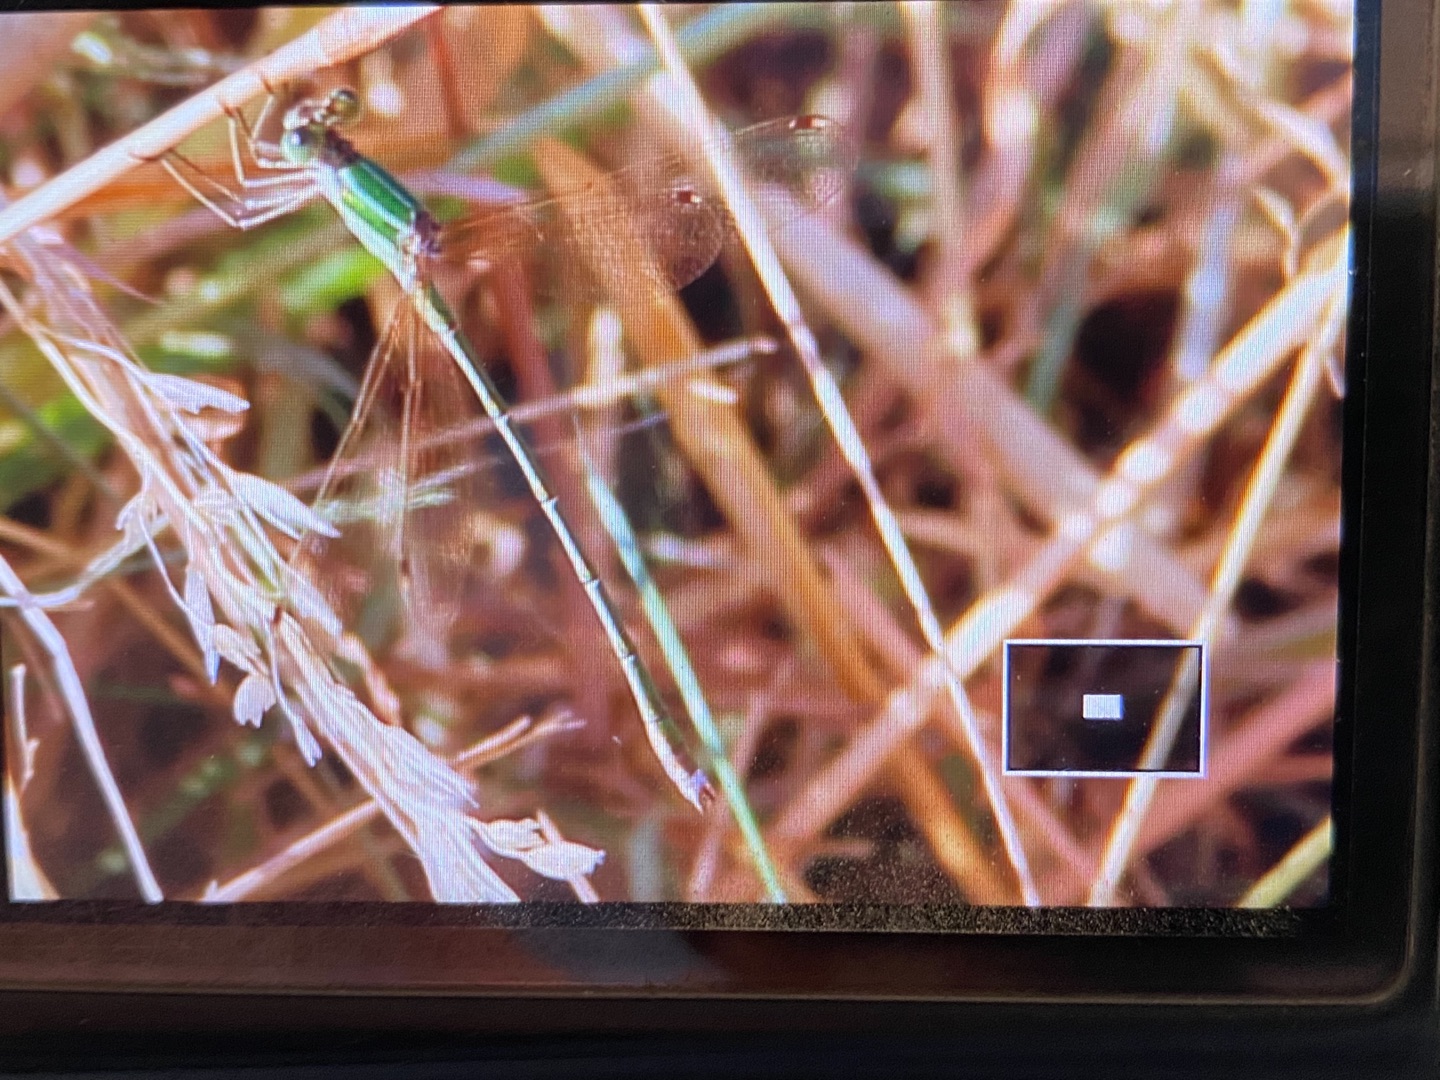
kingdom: Animalia
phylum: Arthropoda
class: Insecta
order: Odonata
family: Lestidae
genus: Lestes
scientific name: Lestes barbarus
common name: Sydlig kobbervandnymfe
